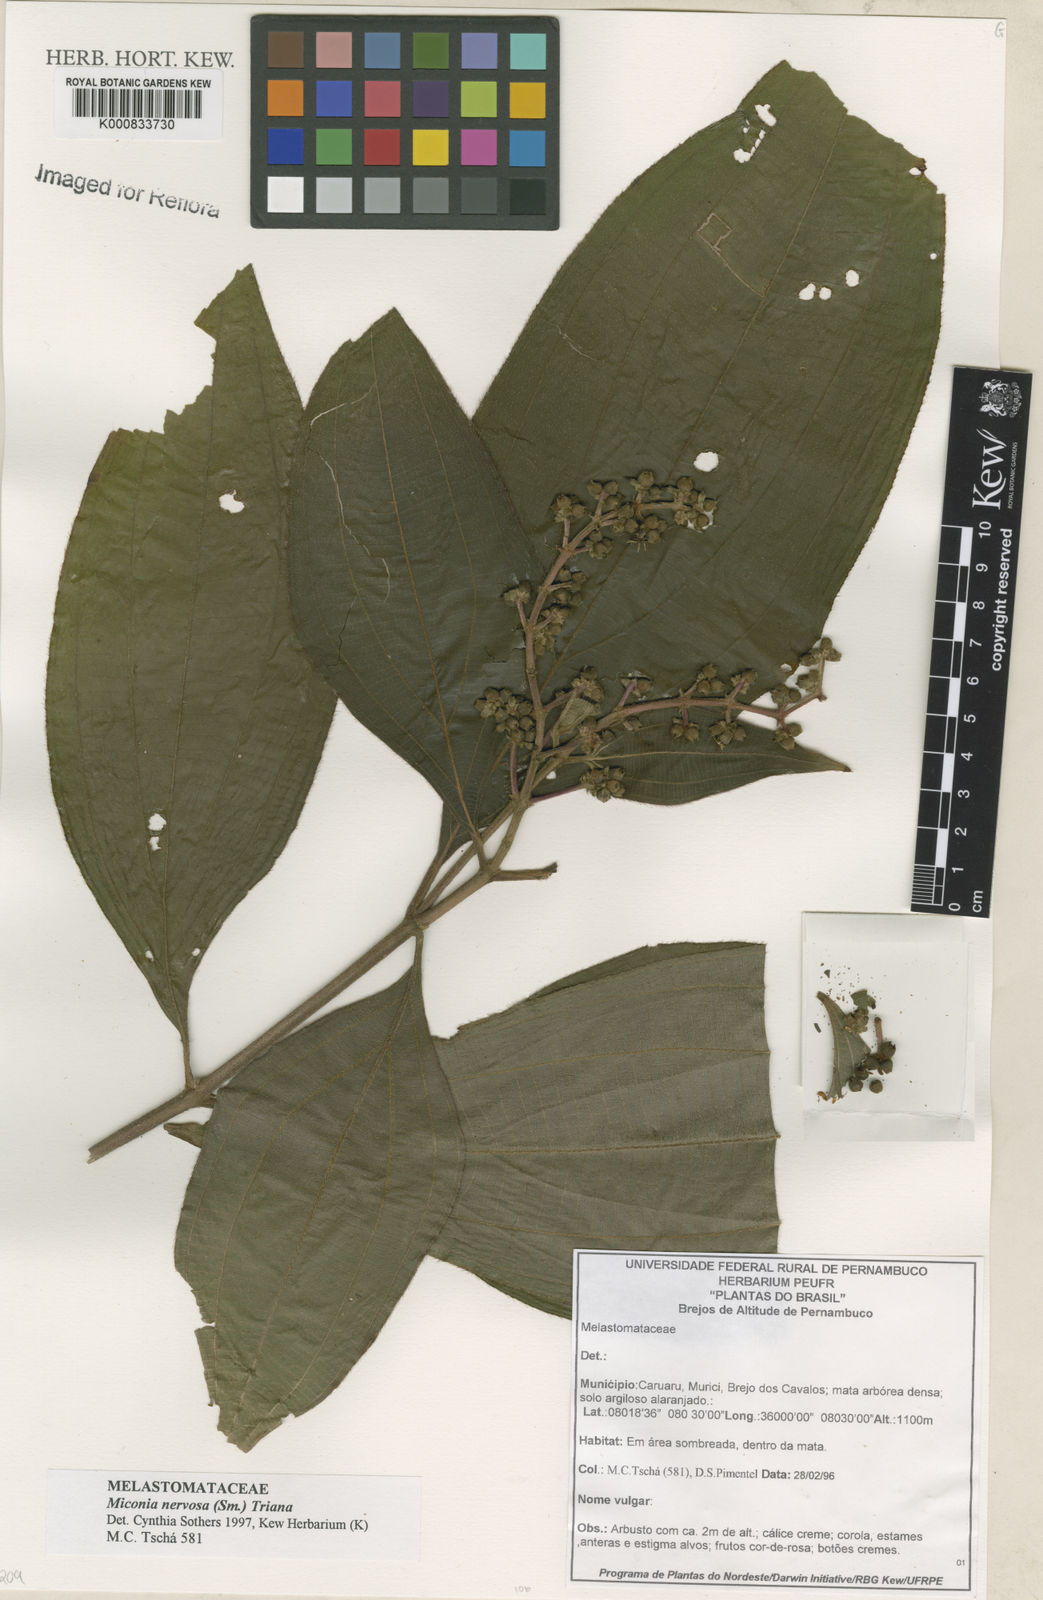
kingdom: Plantae
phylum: Tracheophyta
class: Magnoliopsida
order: Myrtales
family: Melastomataceae
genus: Miconia
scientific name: Miconia nervosa
